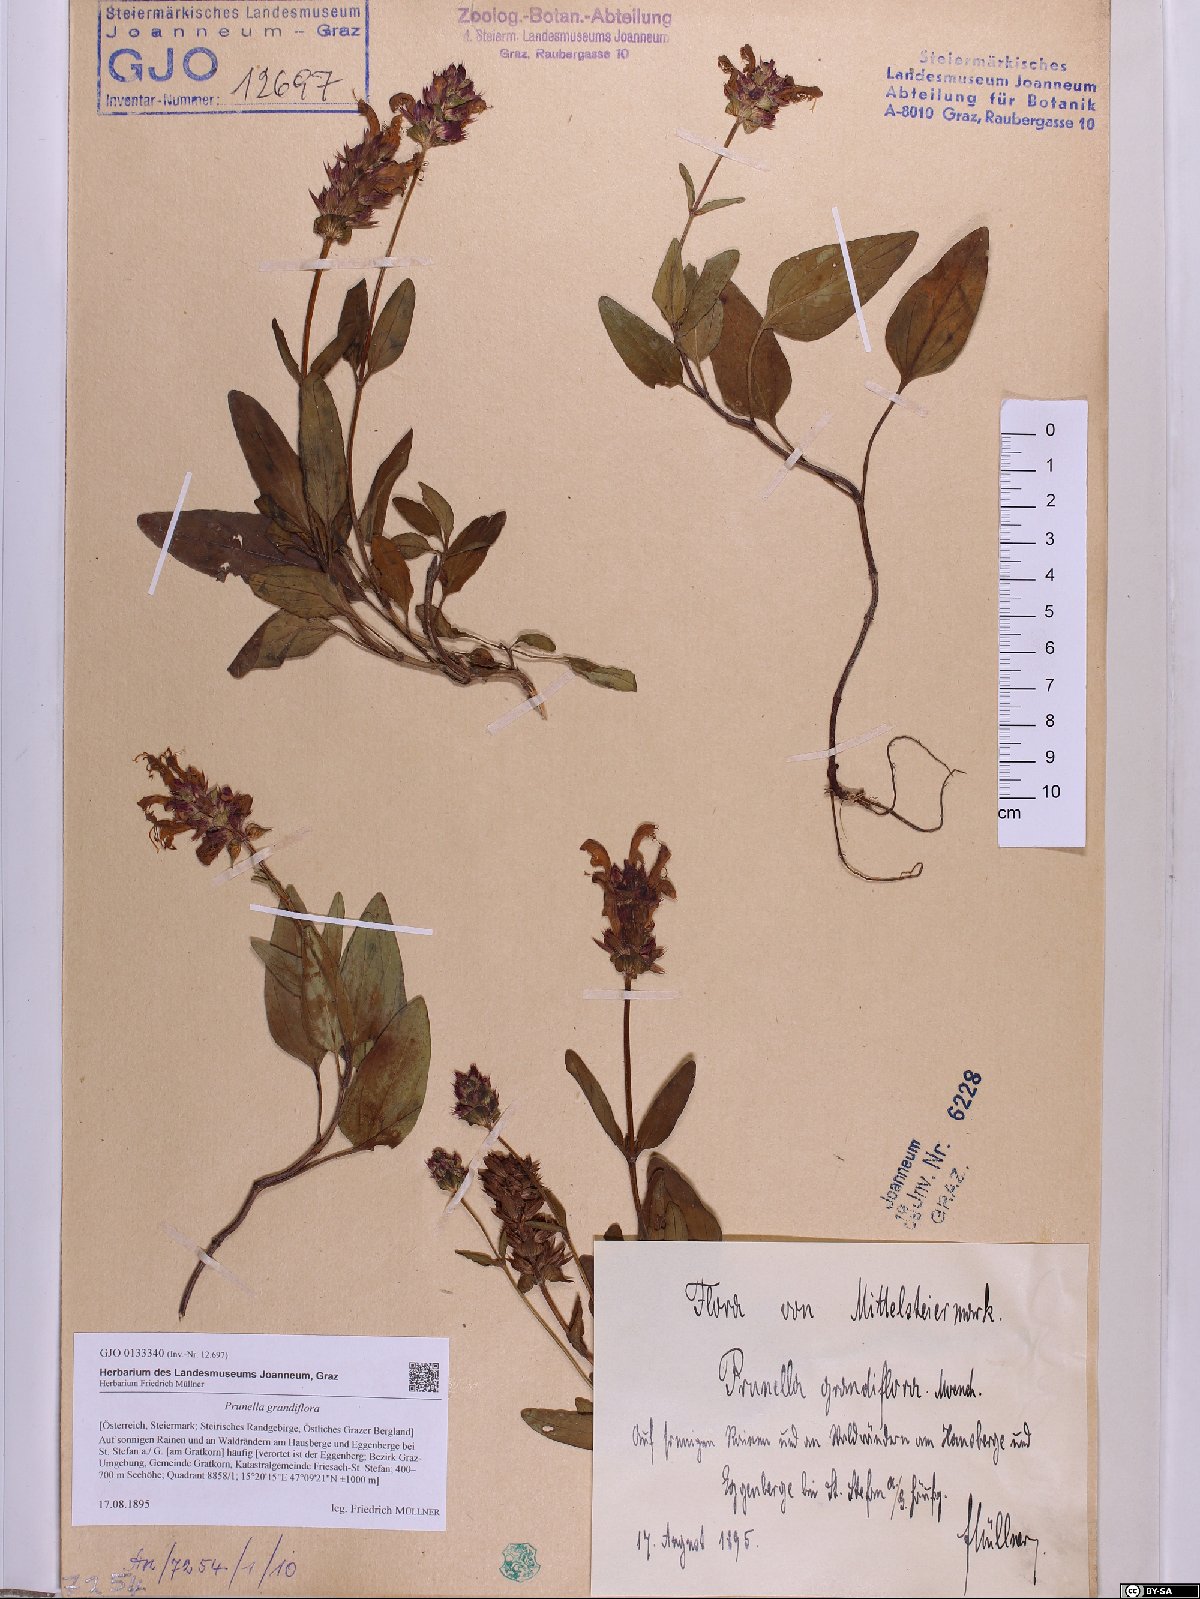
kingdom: Plantae
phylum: Tracheophyta
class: Magnoliopsida
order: Lamiales
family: Lamiaceae
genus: Prunella
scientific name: Prunella grandiflora
